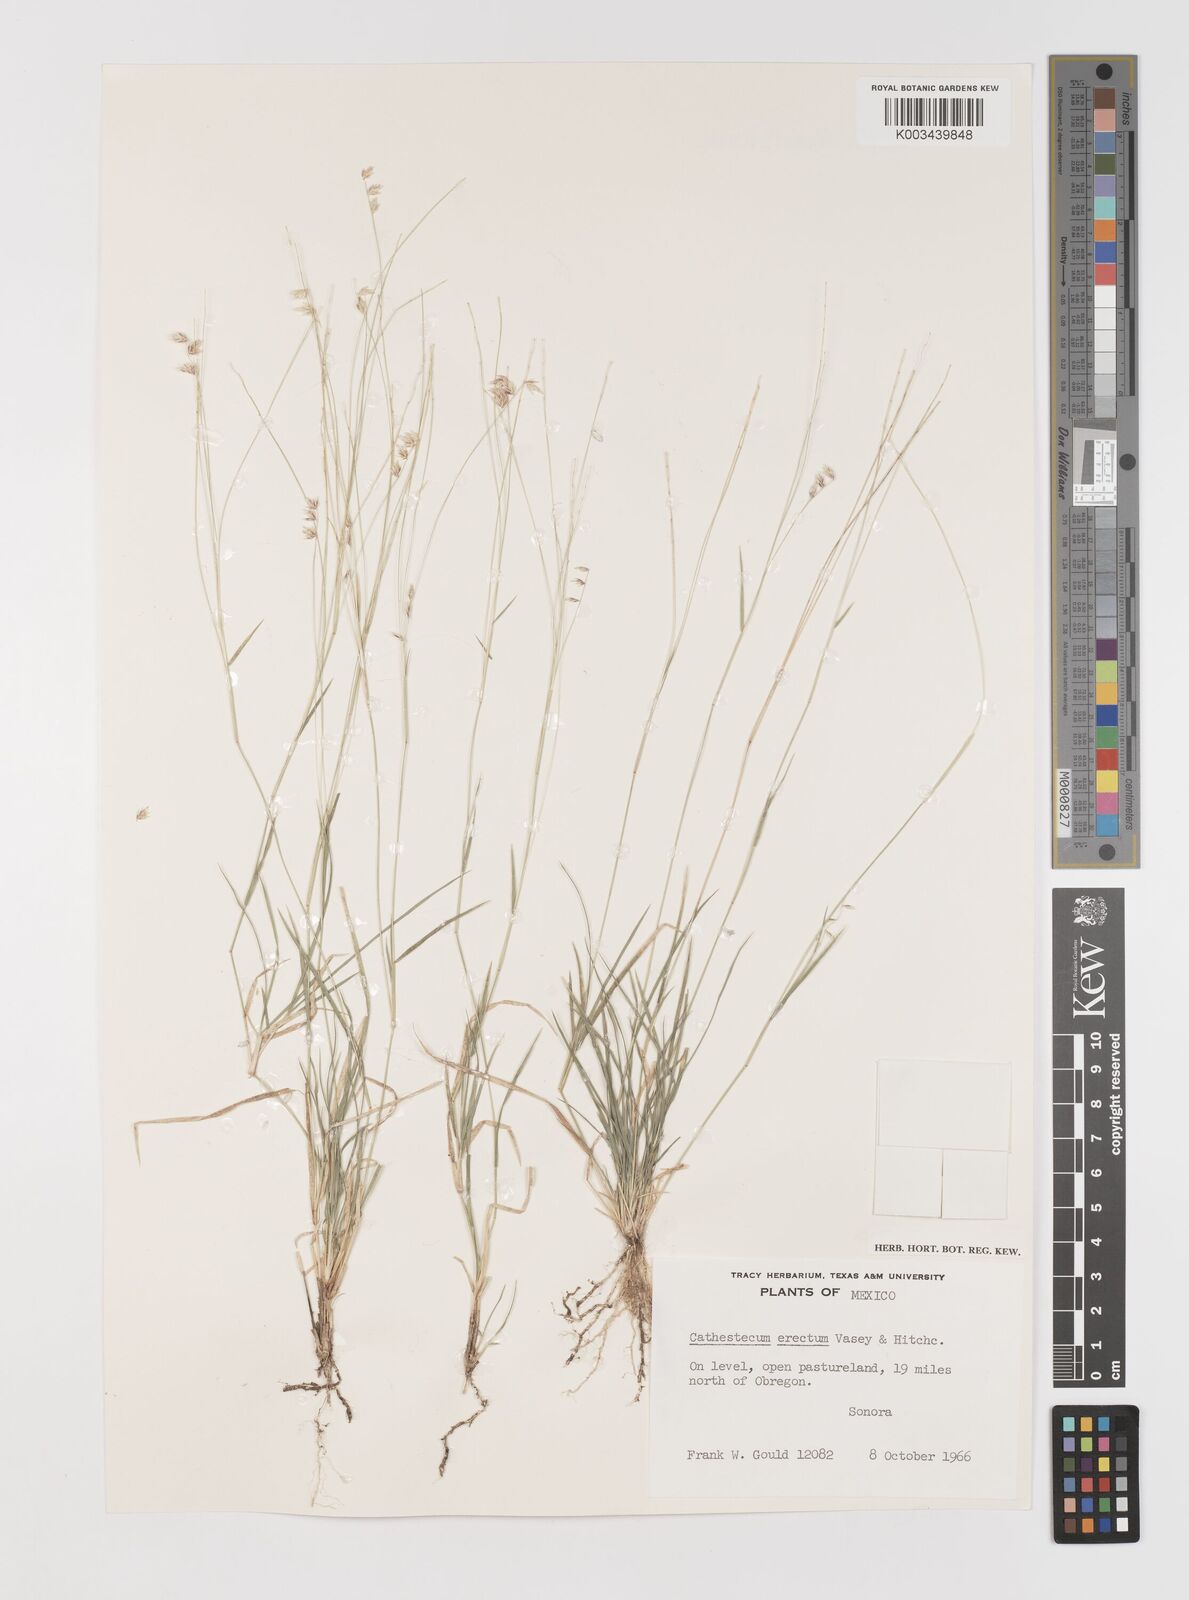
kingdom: Plantae
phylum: Tracheophyta
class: Liliopsida
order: Poales
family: Poaceae
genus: Bouteloua
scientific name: Bouteloua erecta
